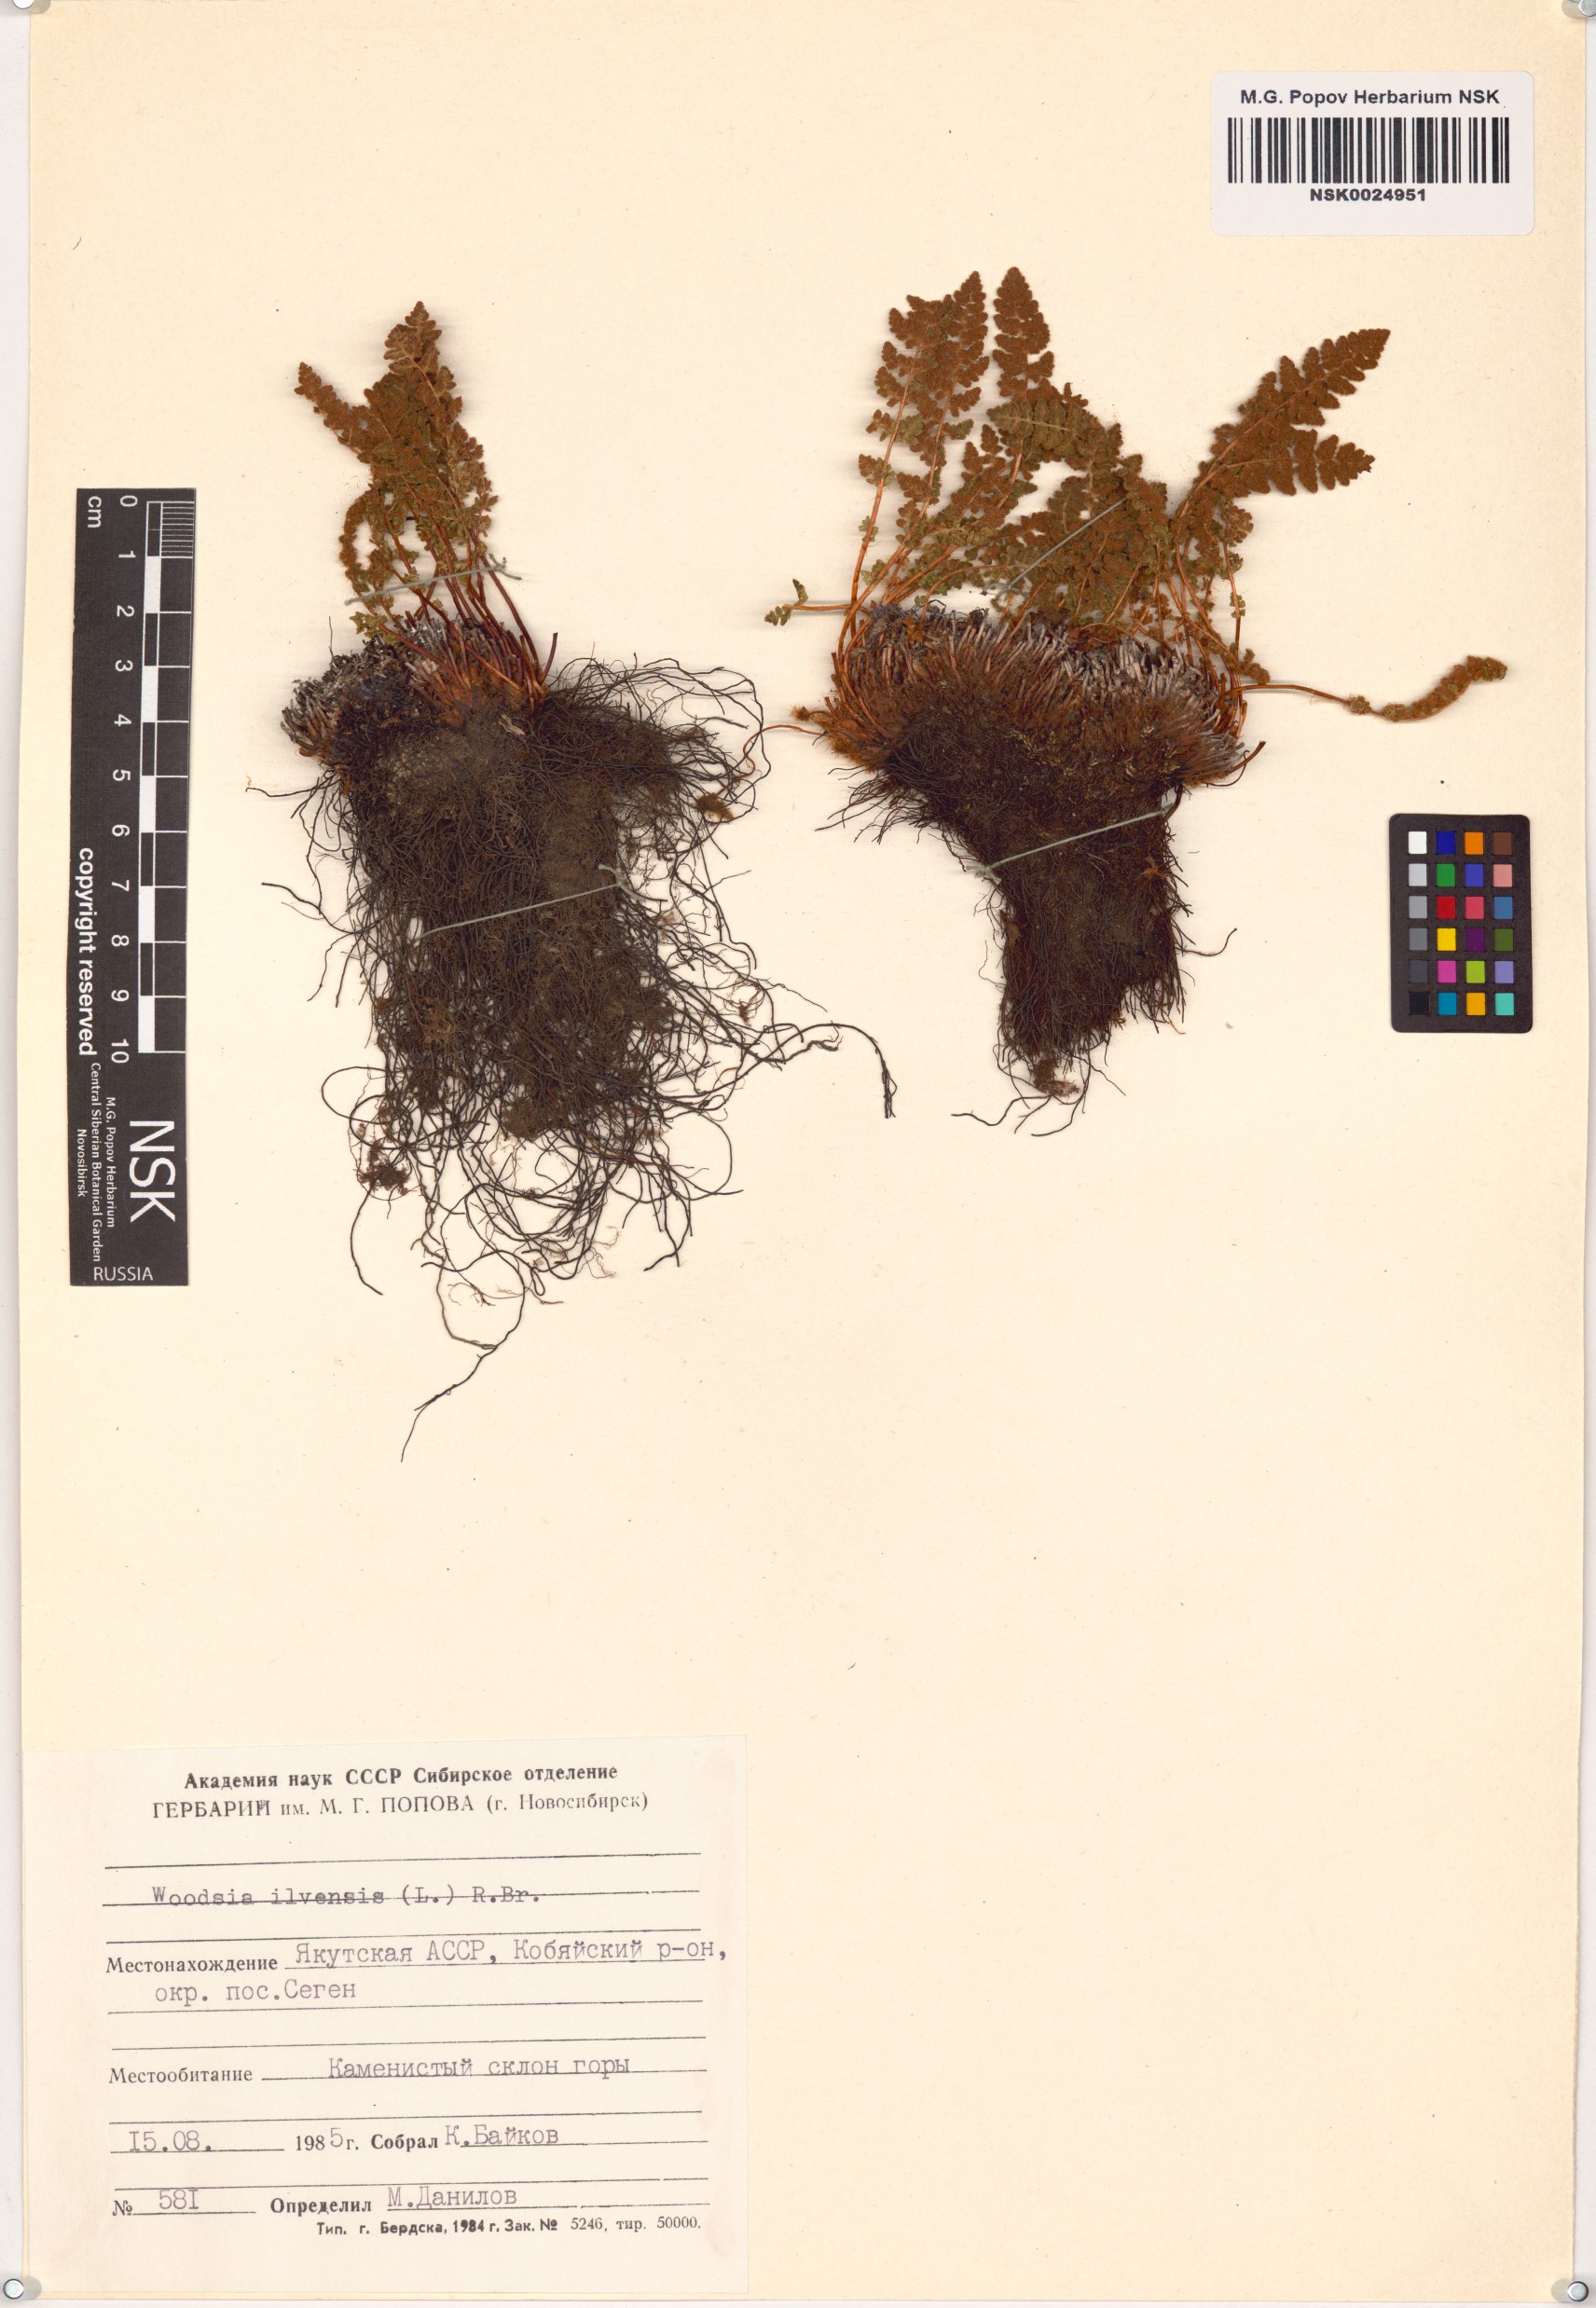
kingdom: Plantae
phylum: Tracheophyta
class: Polypodiopsida
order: Polypodiales
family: Woodsiaceae
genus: Woodsia
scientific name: Woodsia ilvensis
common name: Fragrant woodsia
